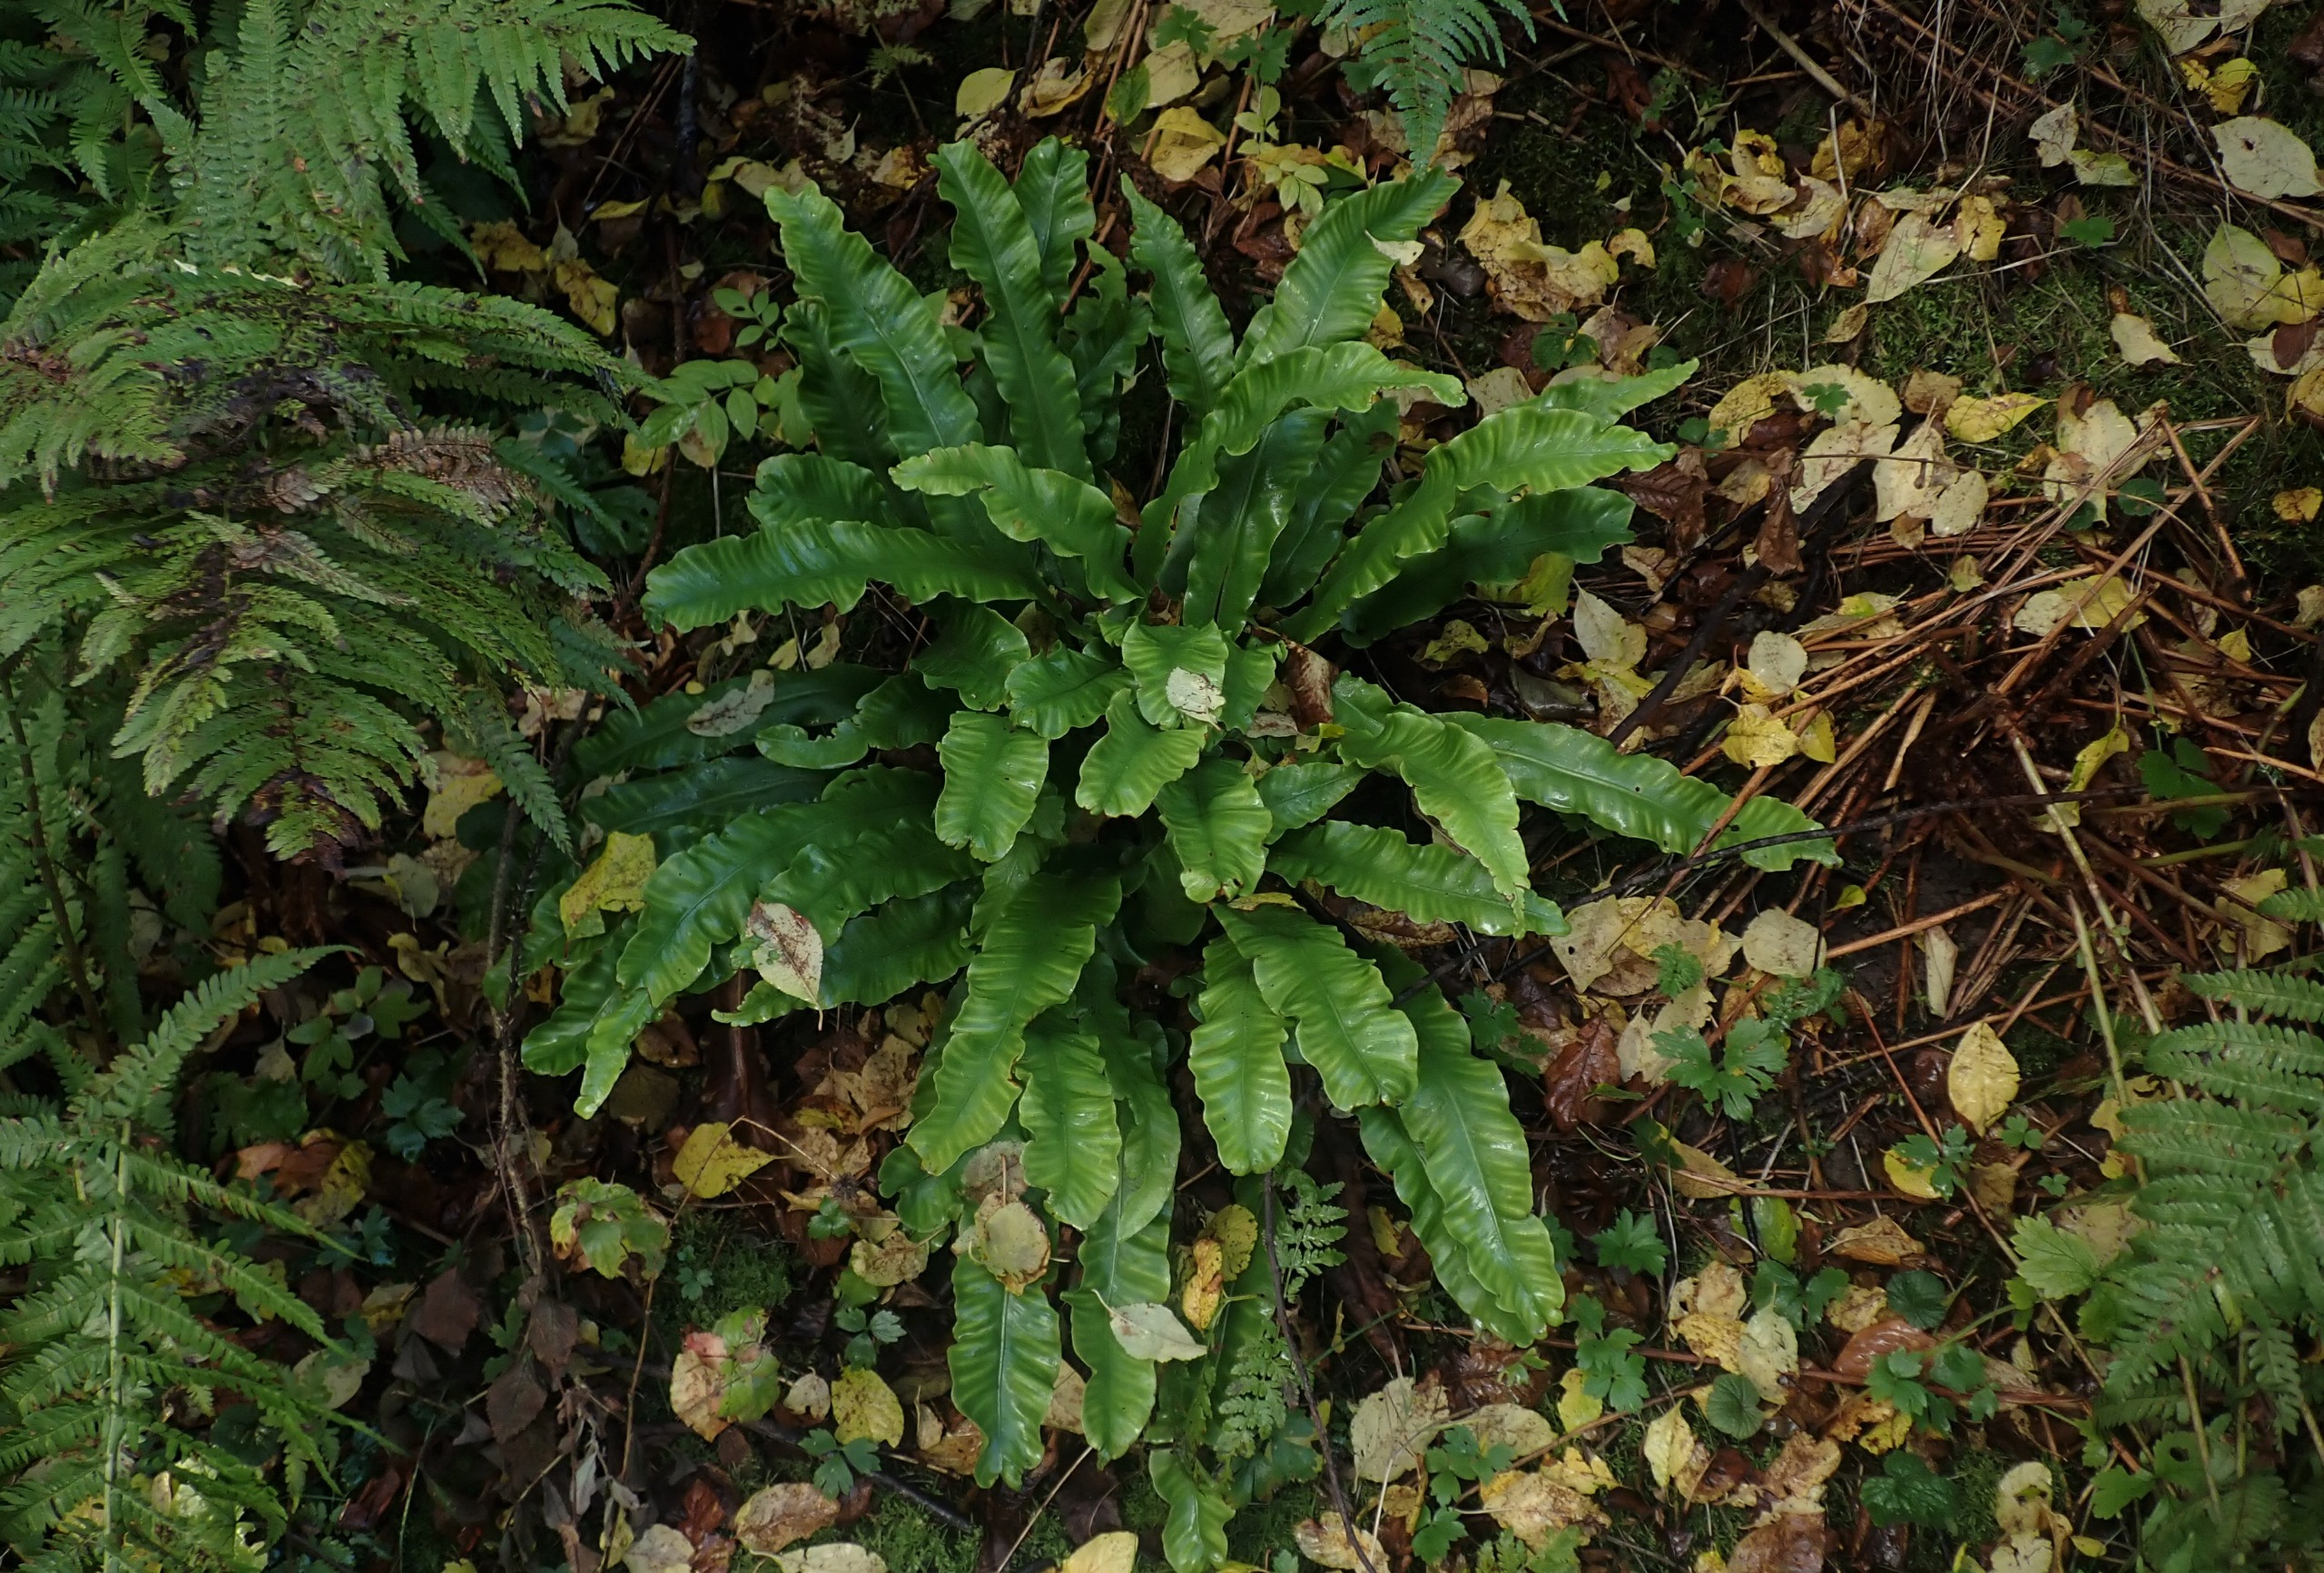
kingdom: Plantae
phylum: Tracheophyta
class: Polypodiopsida
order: Polypodiales
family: Aspleniaceae
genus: Asplenium
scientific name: Asplenium scolopendrium
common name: Hjortetunge
